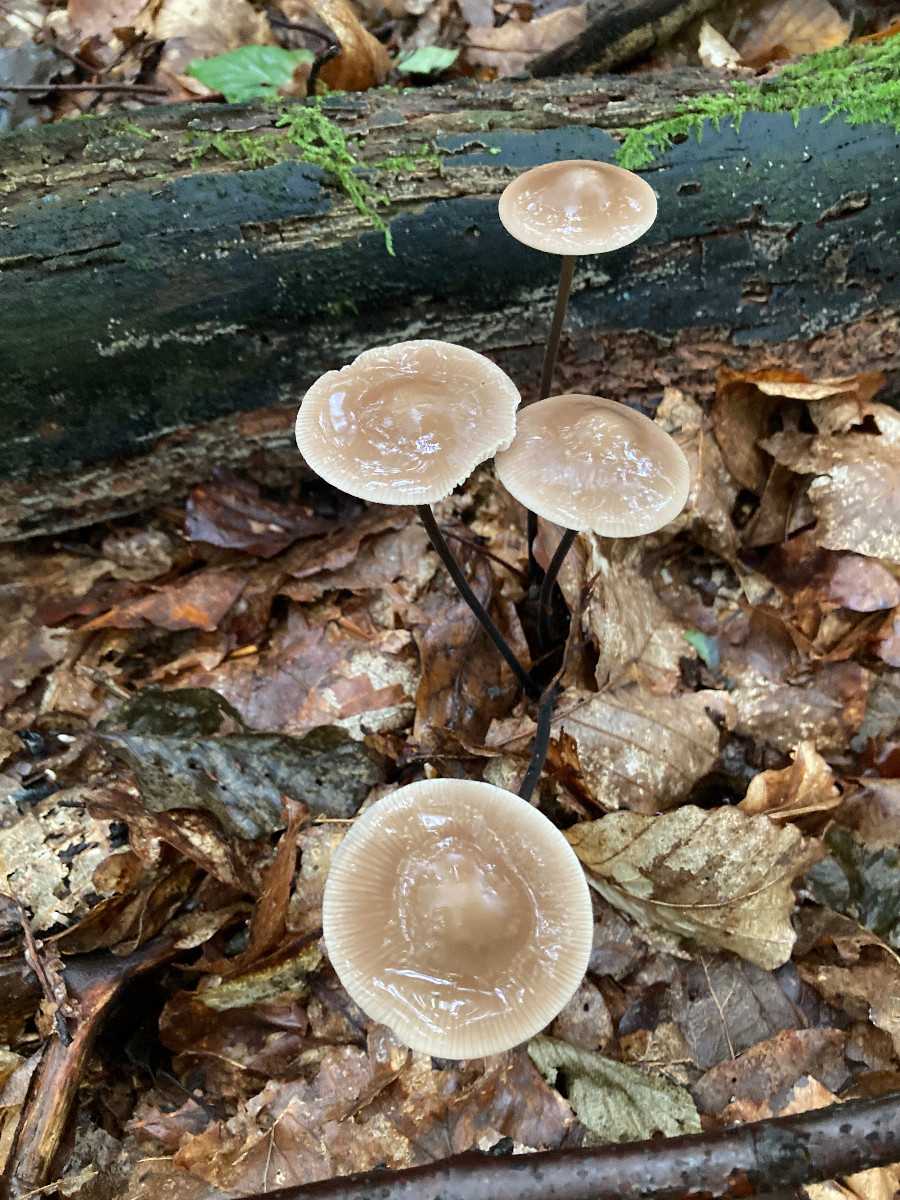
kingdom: Fungi
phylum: Basidiomycota
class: Agaricomycetes
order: Agaricales
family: Omphalotaceae
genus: Mycetinis
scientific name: Mycetinis alliaceus
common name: stor løghat
